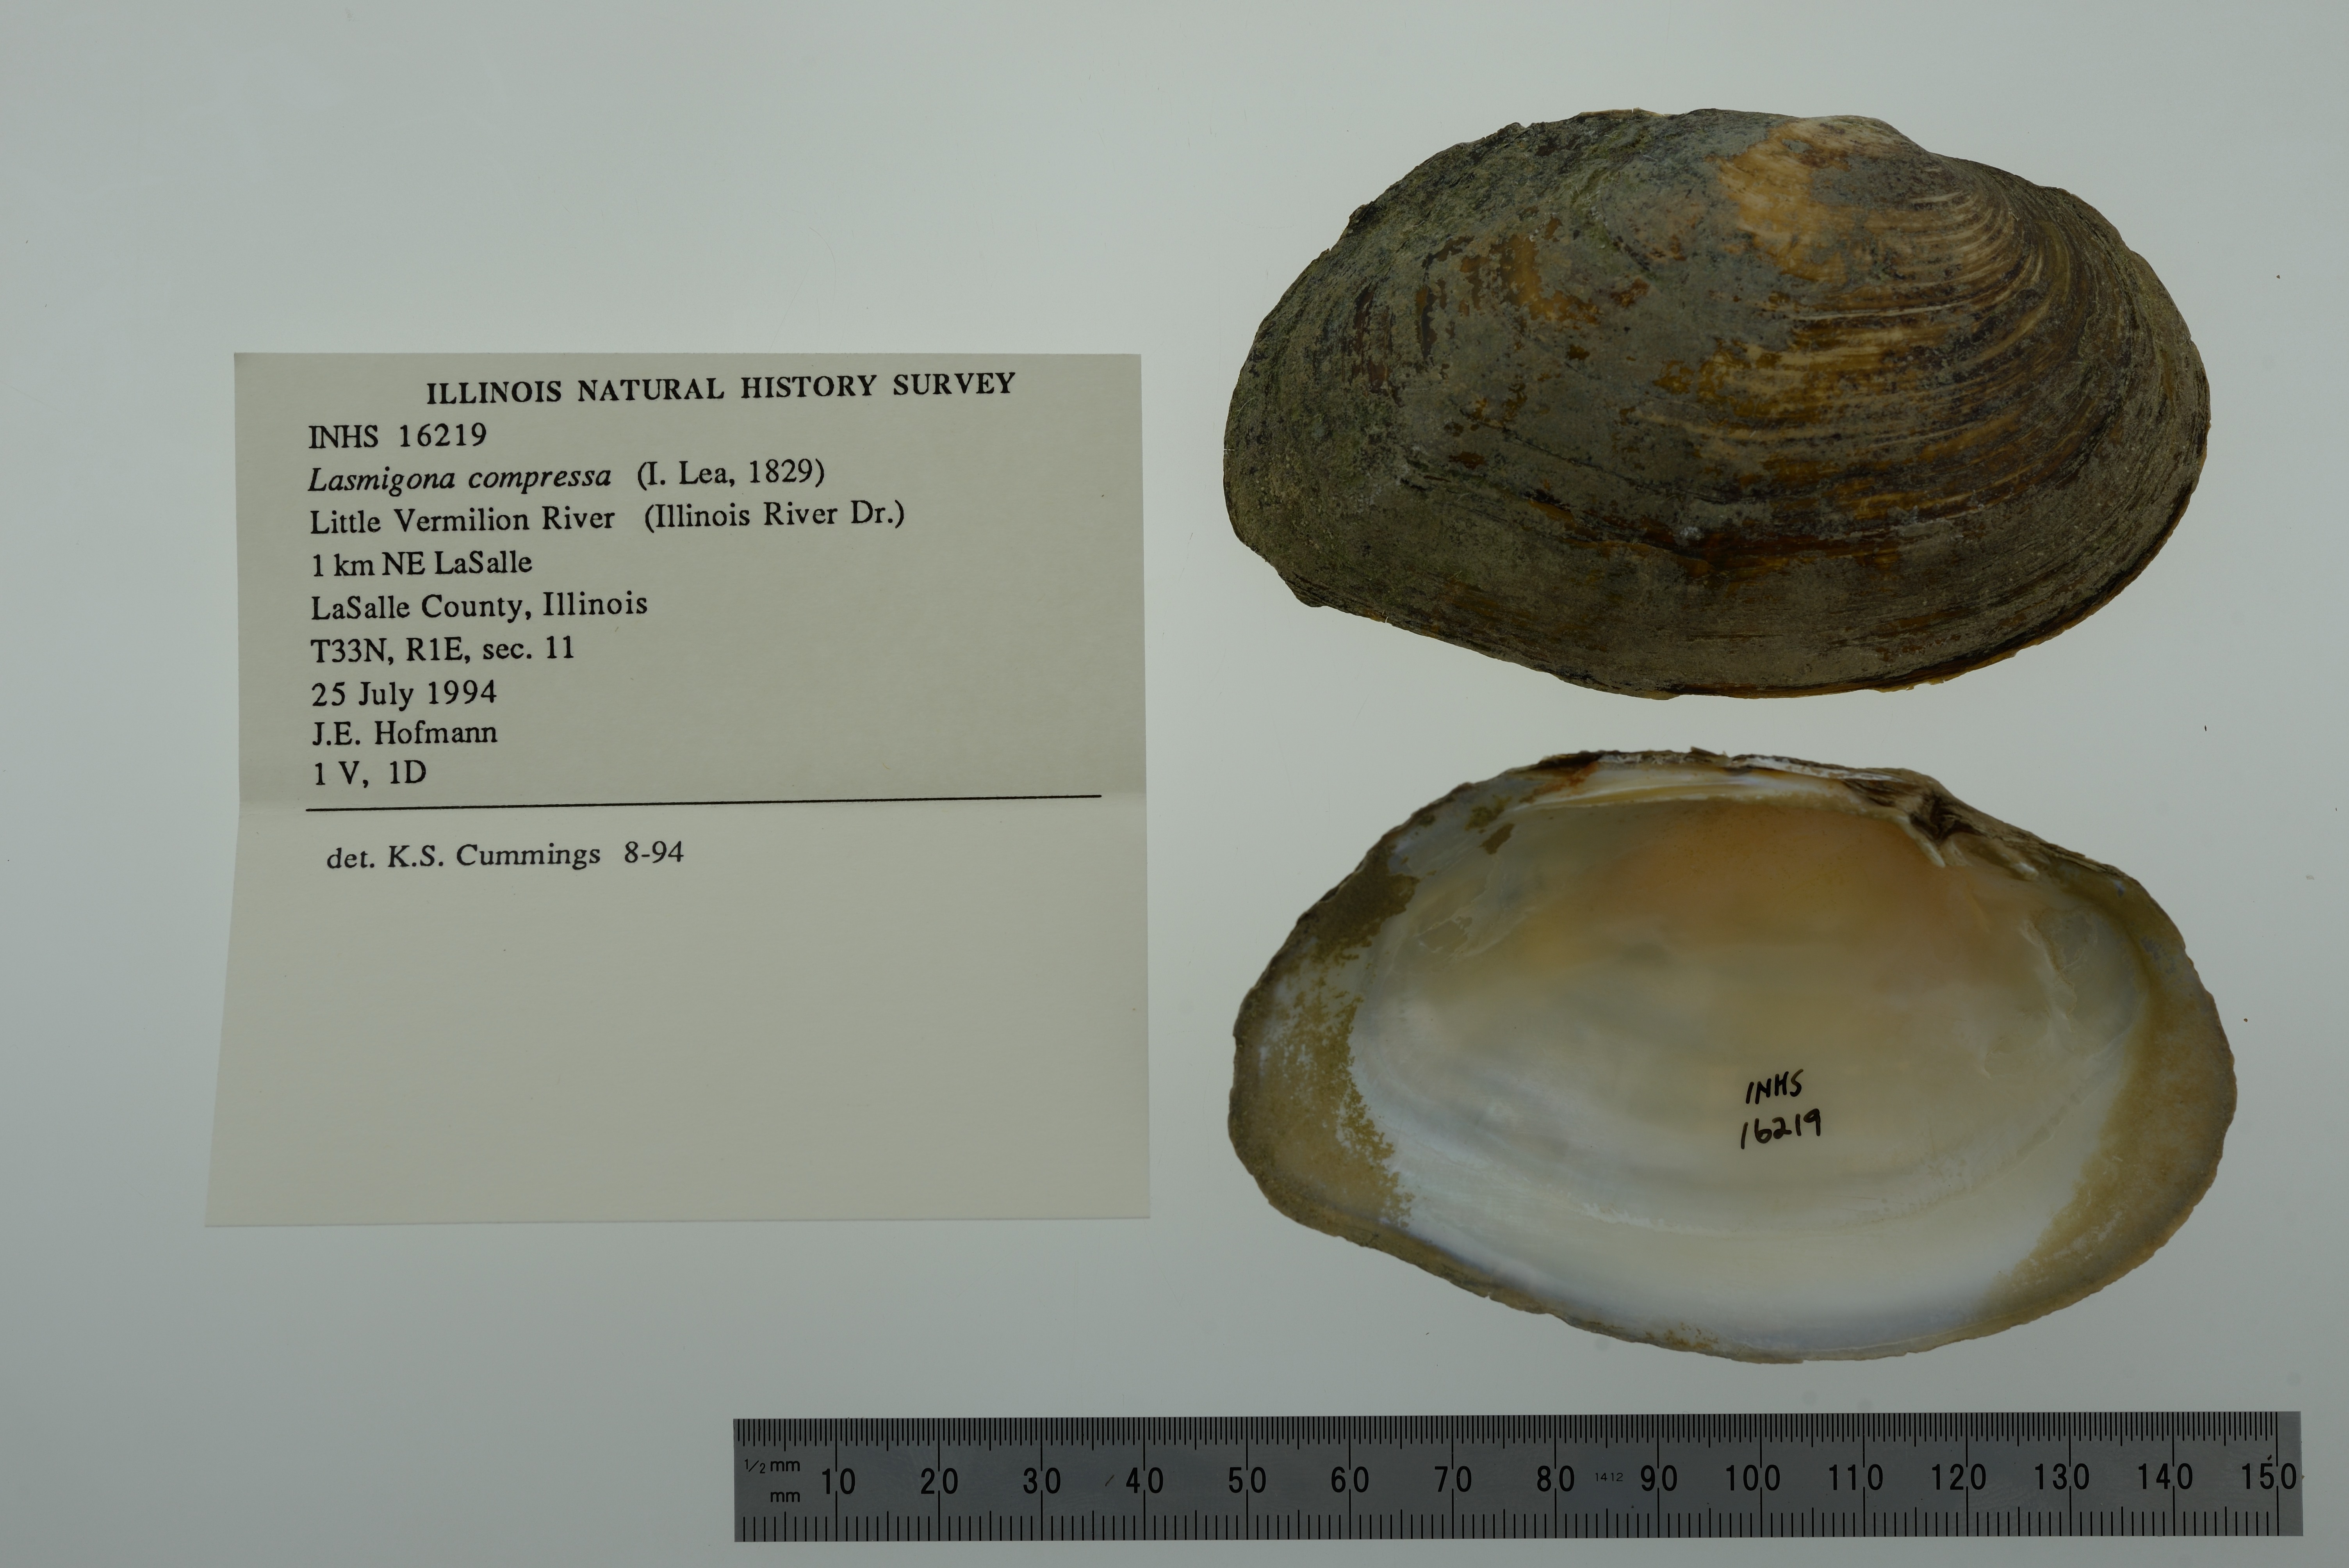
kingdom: Animalia
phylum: Mollusca
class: Bivalvia
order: Unionida
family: Unionidae
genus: Lasmigona
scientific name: Lasmigona compressa
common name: Creek heelsplitter
